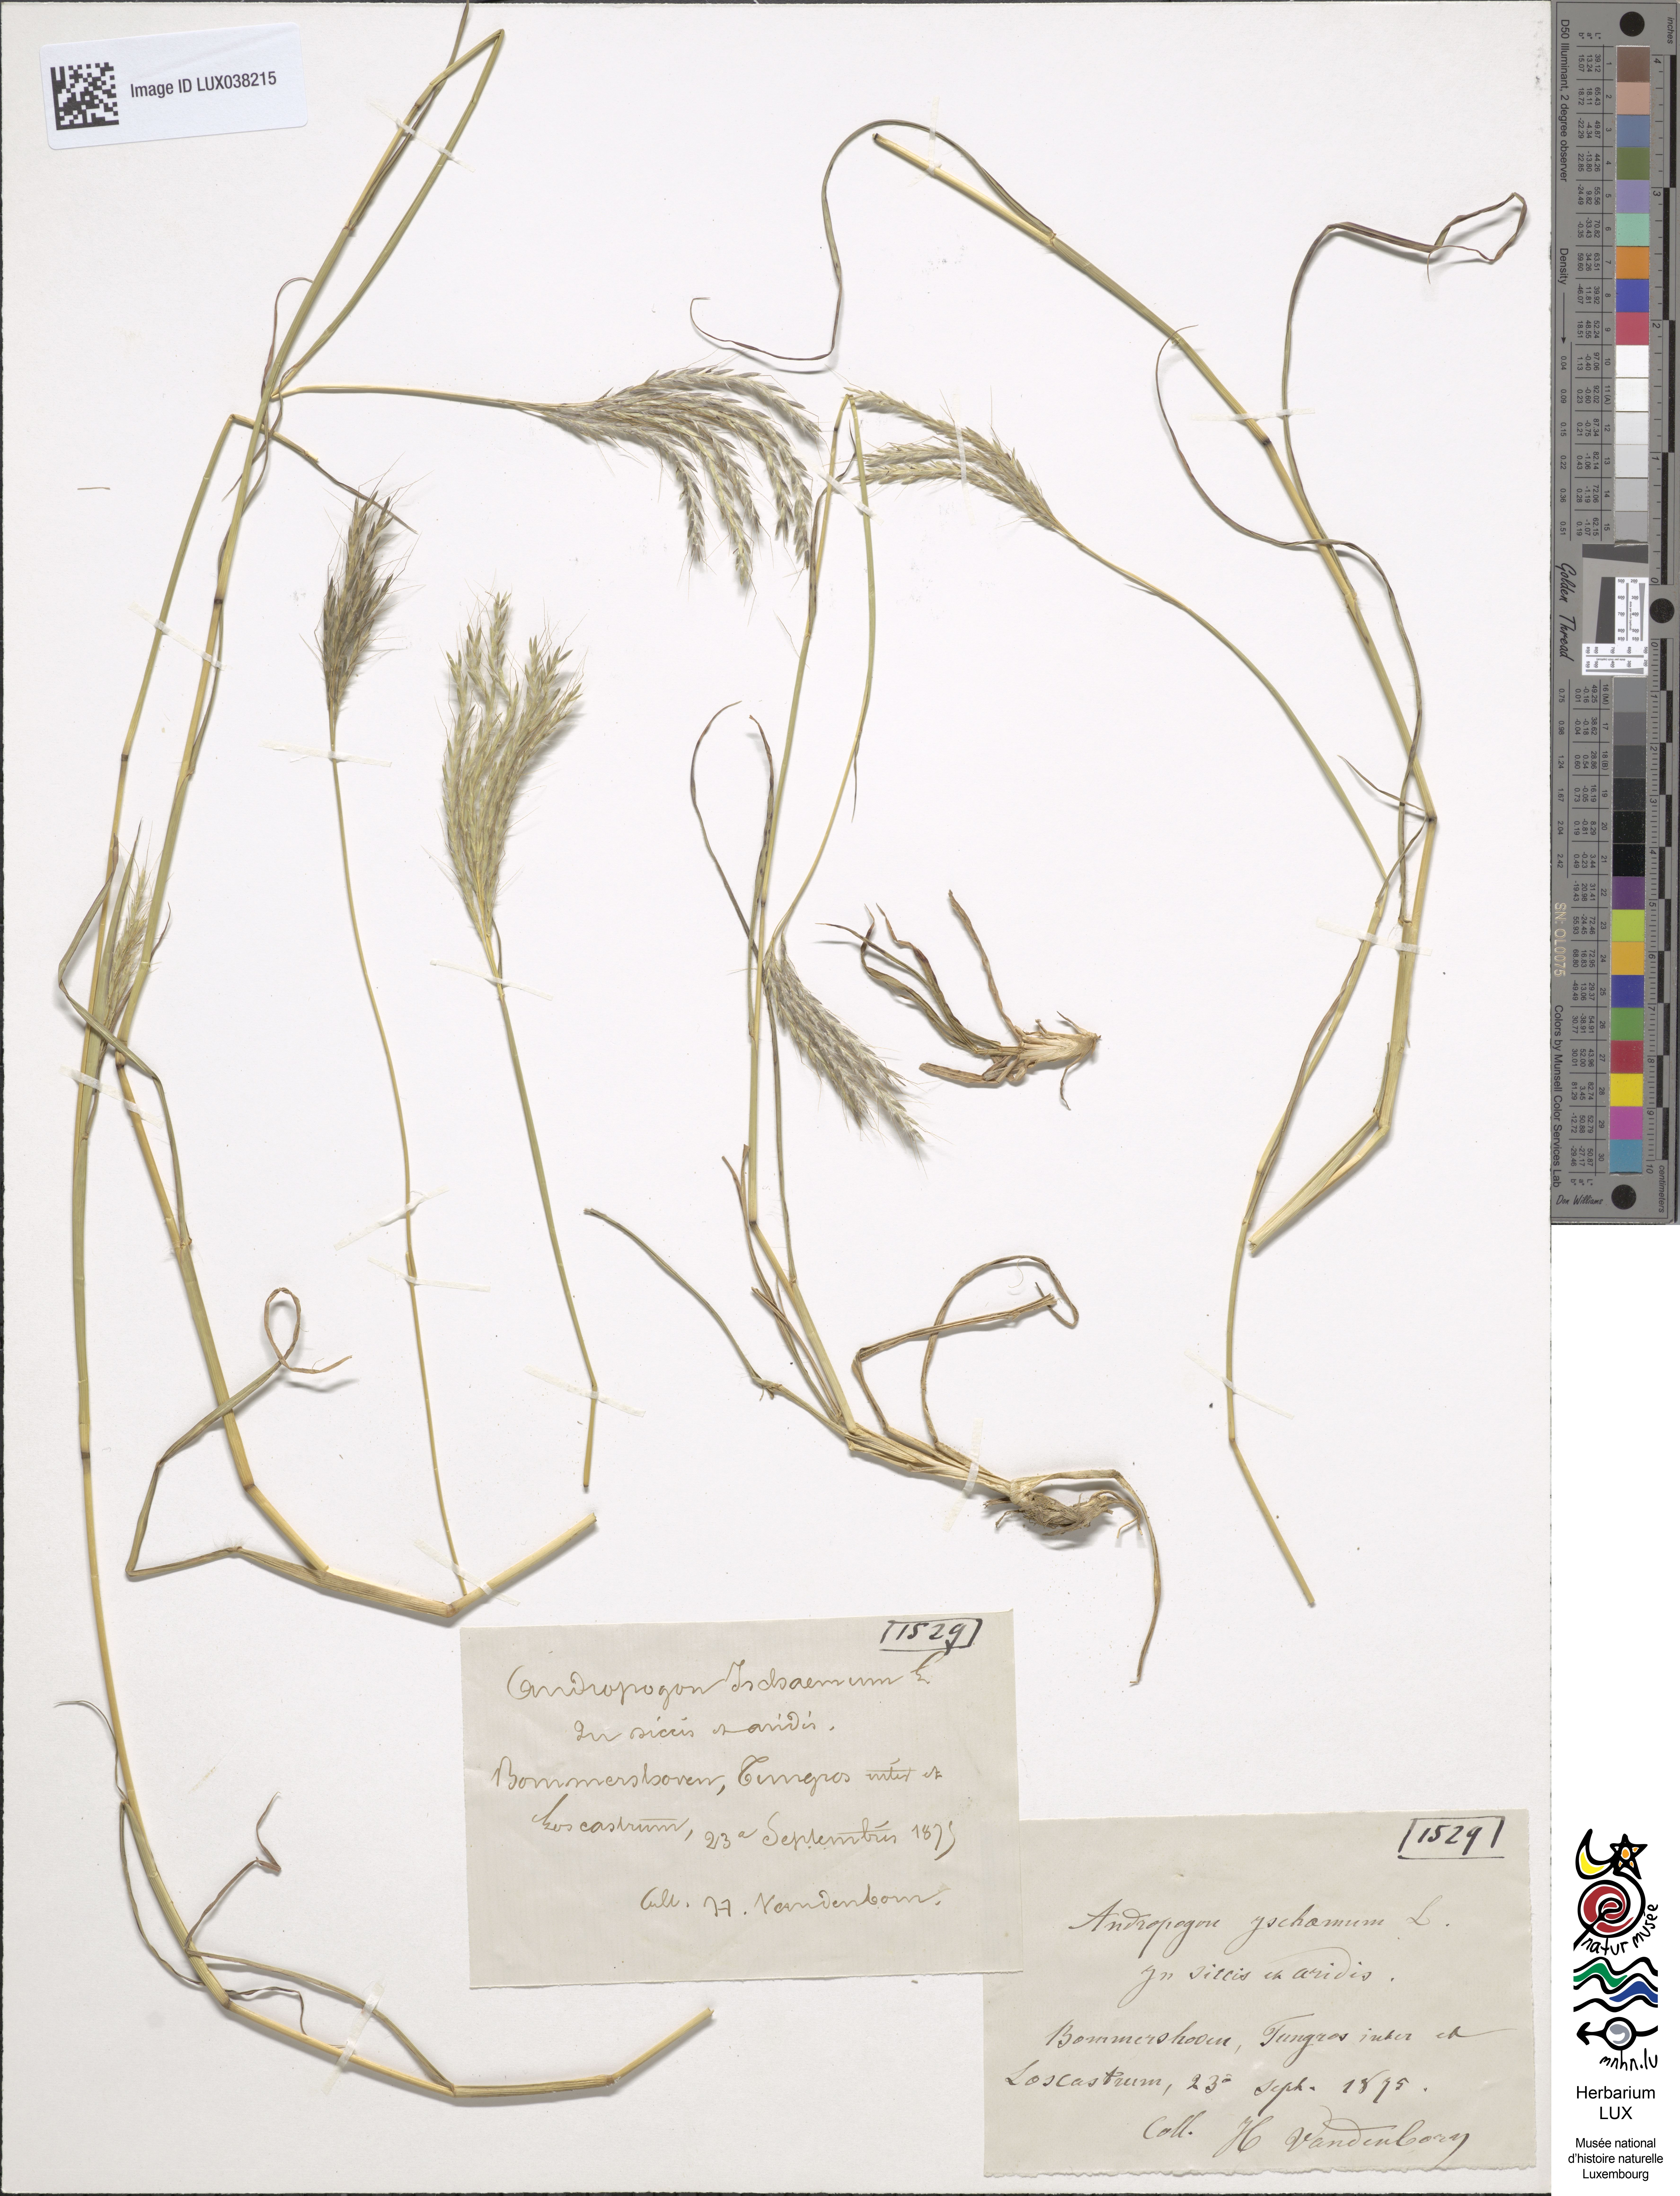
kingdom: Plantae
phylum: Tracheophyta
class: Liliopsida
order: Poales
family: Poaceae
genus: Bothriochloa
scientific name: Bothriochloa ischaemum
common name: Yellow bluestem
